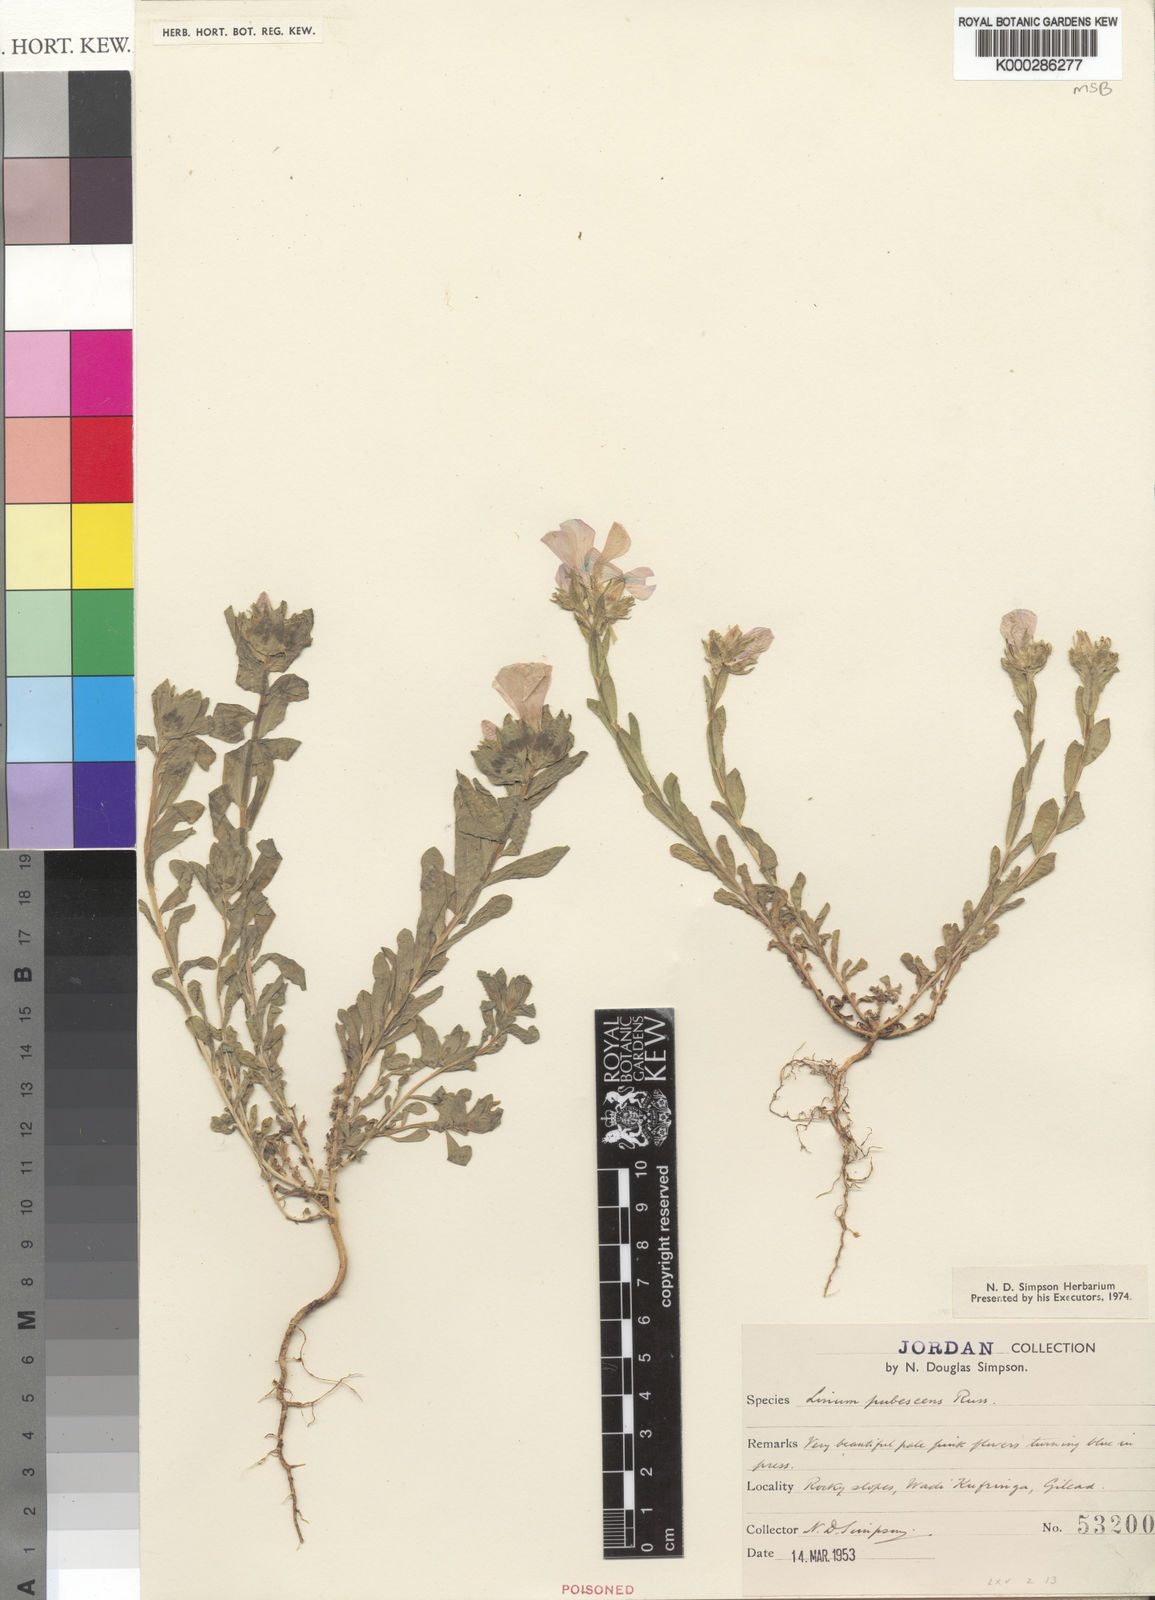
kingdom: Plantae
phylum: Tracheophyta
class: Magnoliopsida
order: Malpighiales
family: Linaceae
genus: Linum
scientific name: Linum pubescens
